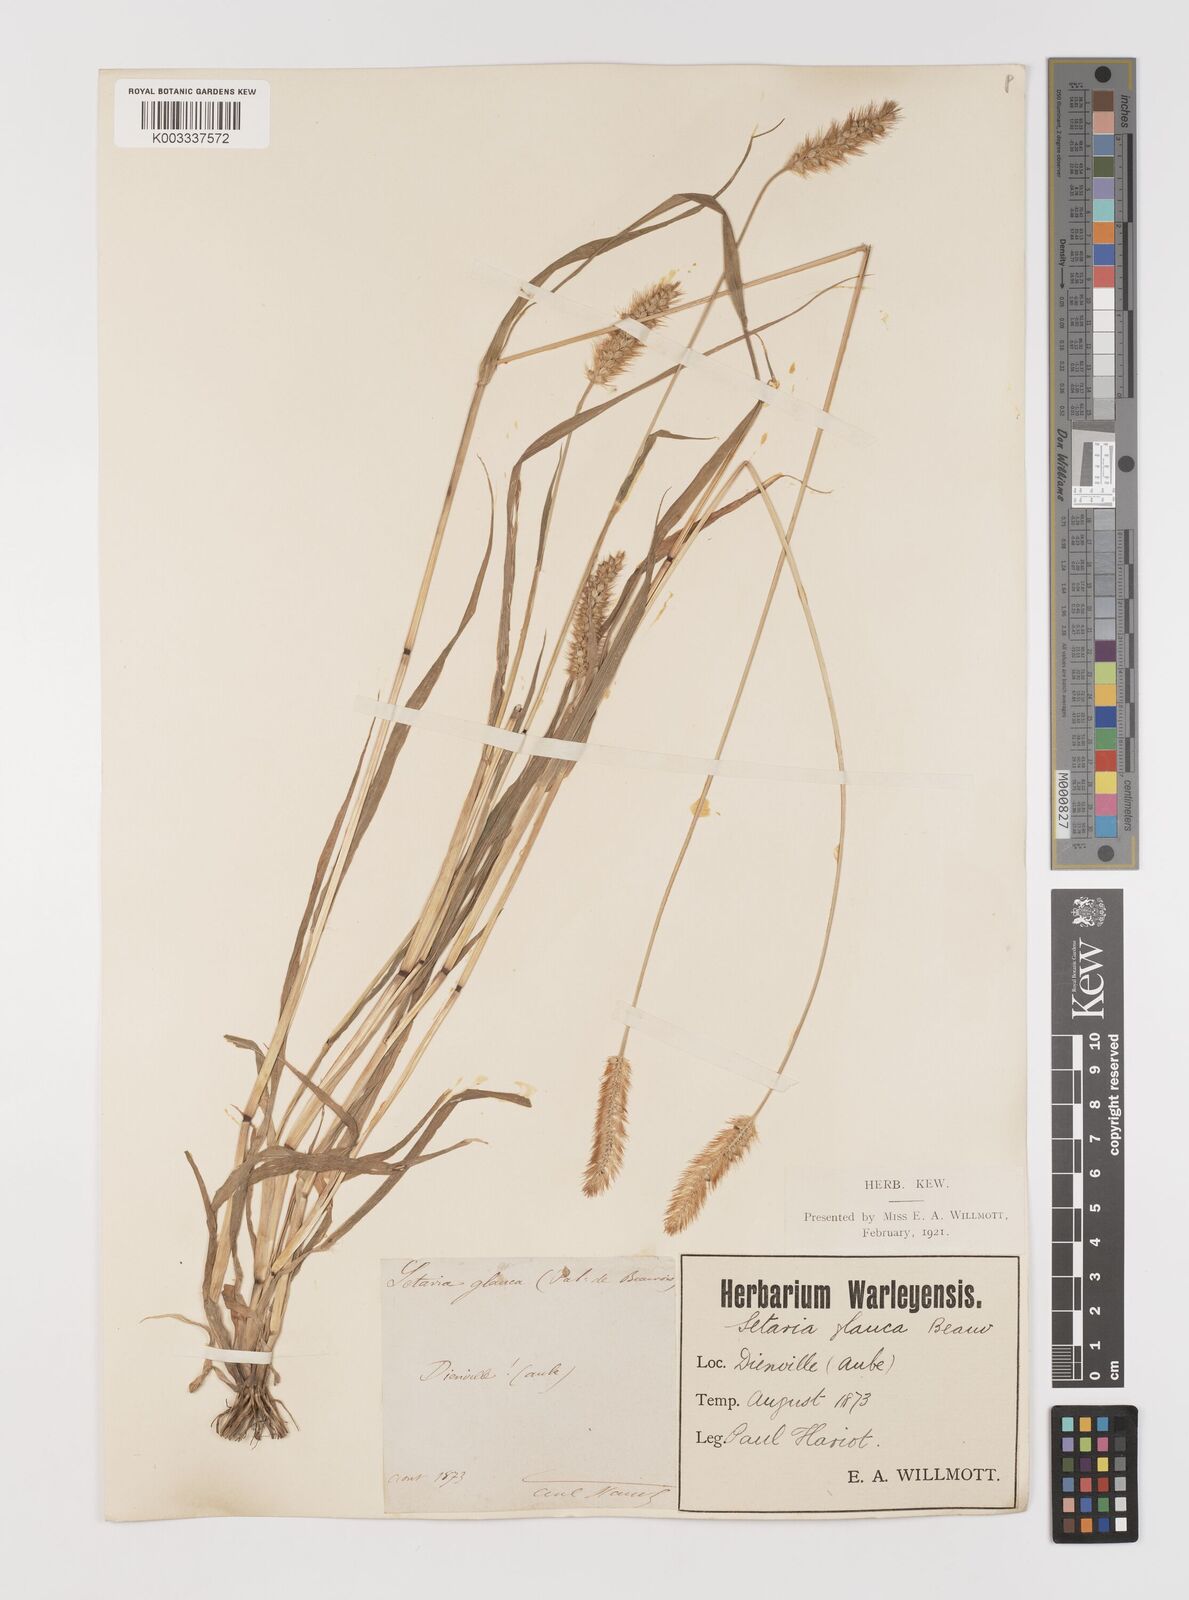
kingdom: Plantae
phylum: Tracheophyta
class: Liliopsida
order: Poales
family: Poaceae
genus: Setaria
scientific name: Setaria pumila
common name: Yellow bristle-grass
